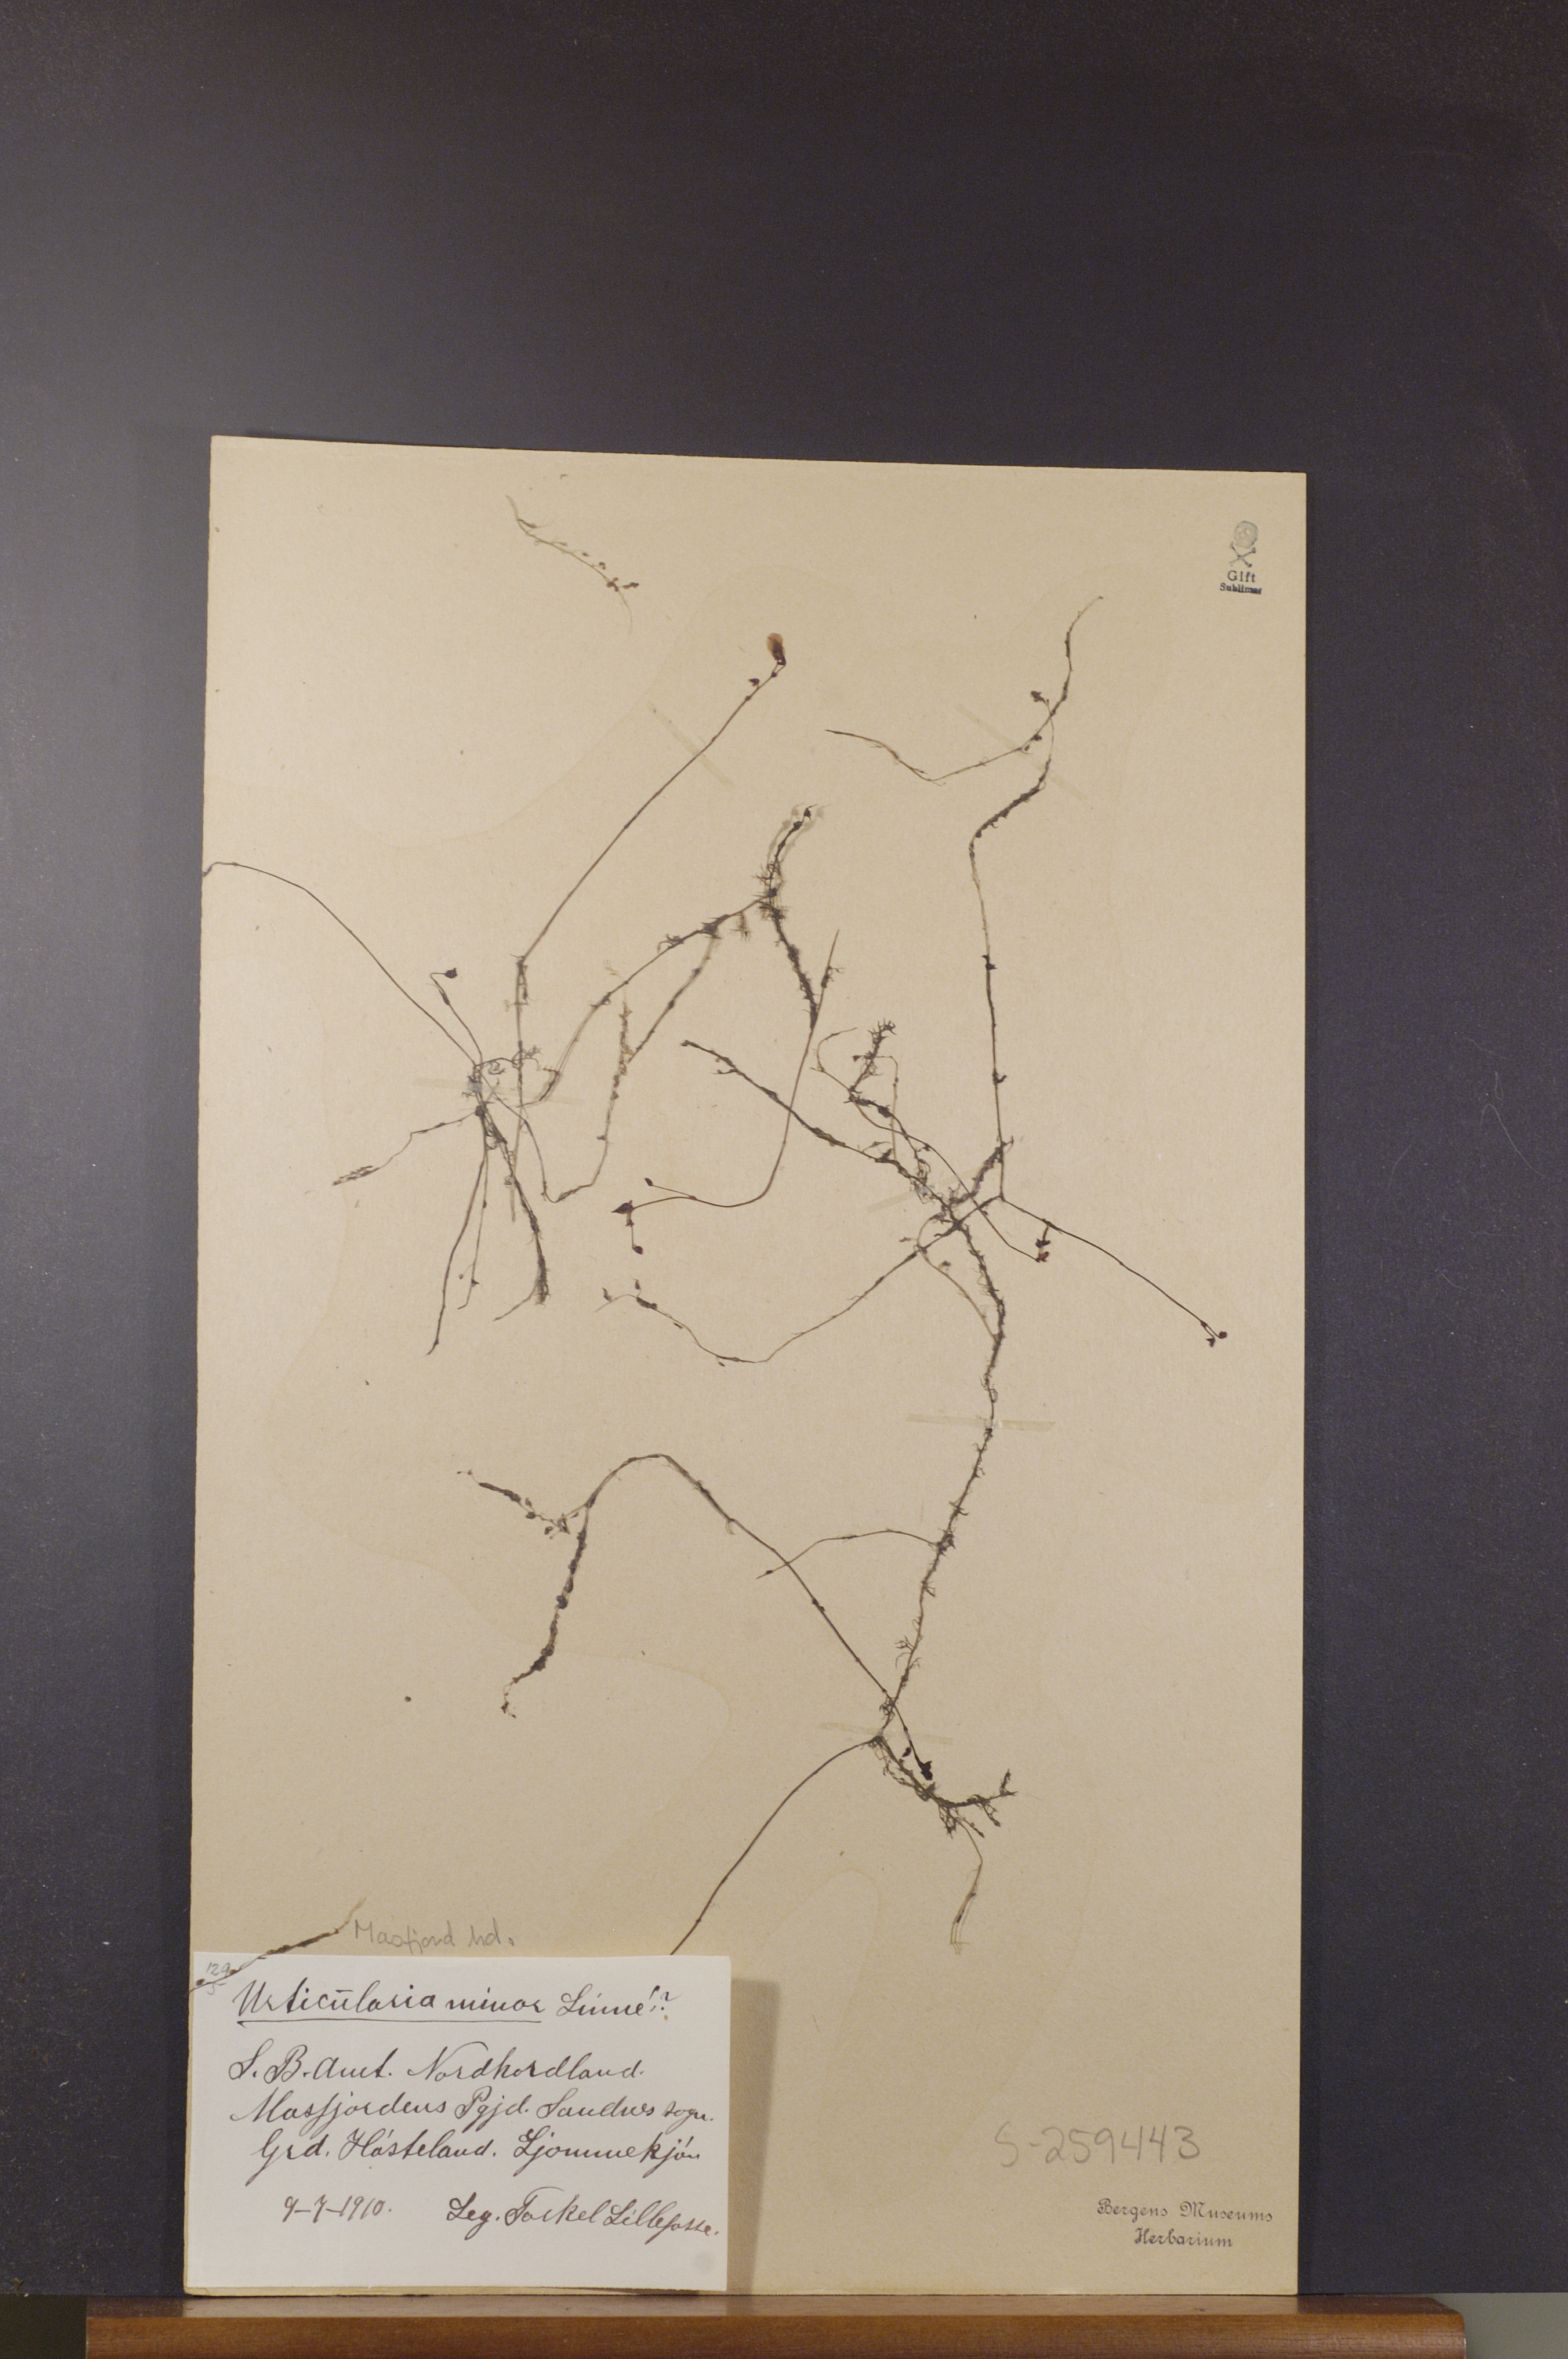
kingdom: Plantae
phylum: Tracheophyta
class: Magnoliopsida
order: Lamiales
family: Lentibulariaceae
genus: Utricularia
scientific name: Utricularia minor
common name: Lesser bladderwort
